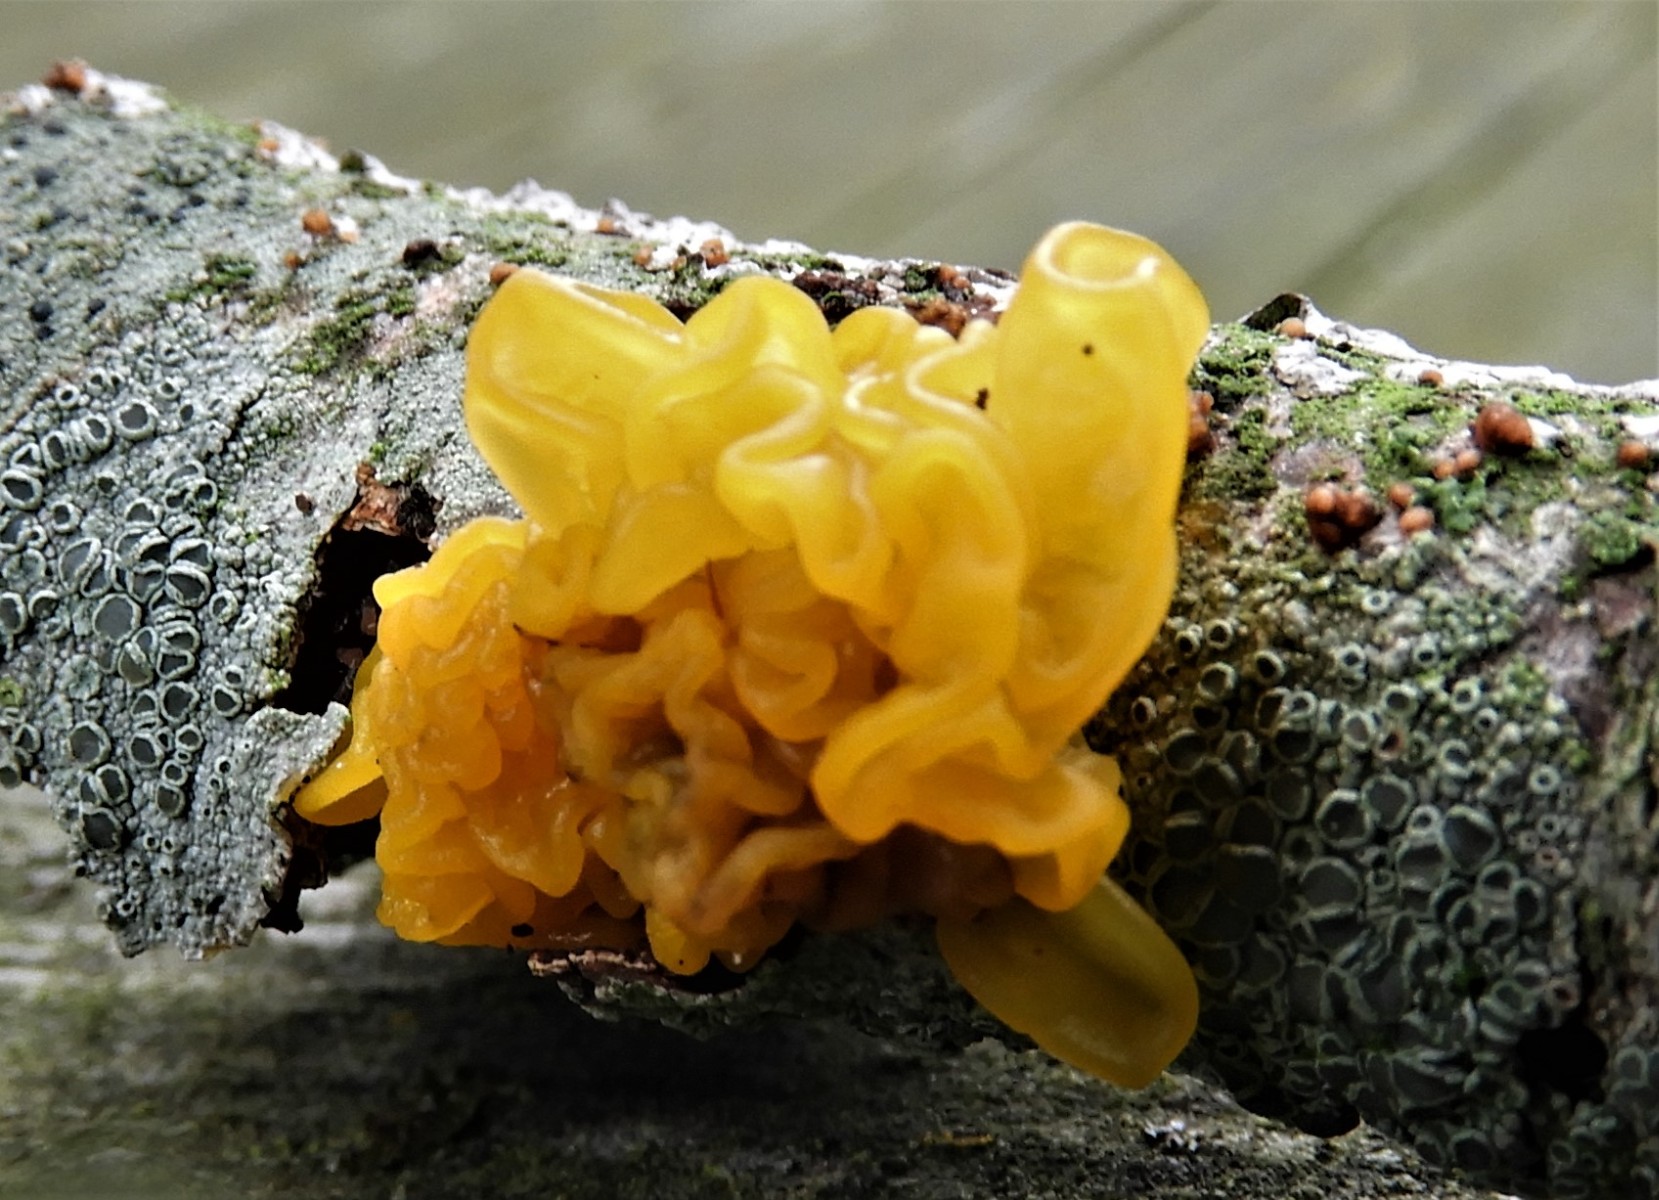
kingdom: Fungi
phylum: Basidiomycota
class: Tremellomycetes
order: Tremellales
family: Tremellaceae
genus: Tremella
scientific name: Tremella mesenterica
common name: gul bævresvamp
